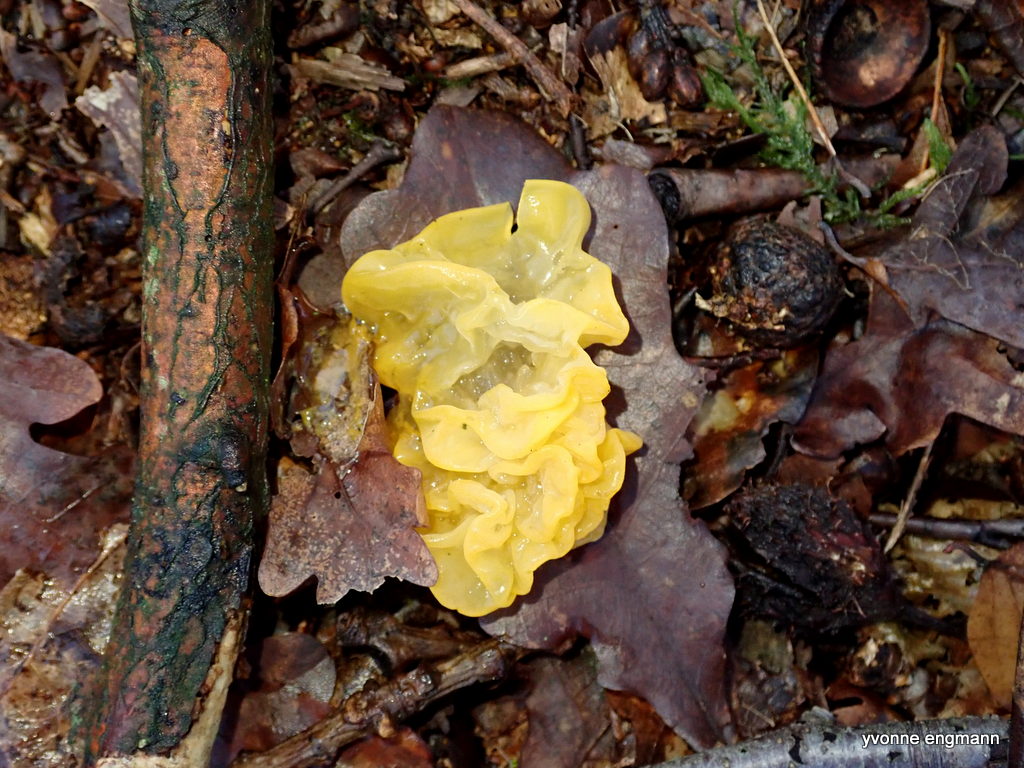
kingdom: Fungi
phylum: Basidiomycota
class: Tremellomycetes
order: Tremellales
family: Tremellaceae
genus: Tremella
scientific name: Tremella mesenterica
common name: gul bævresvamp
